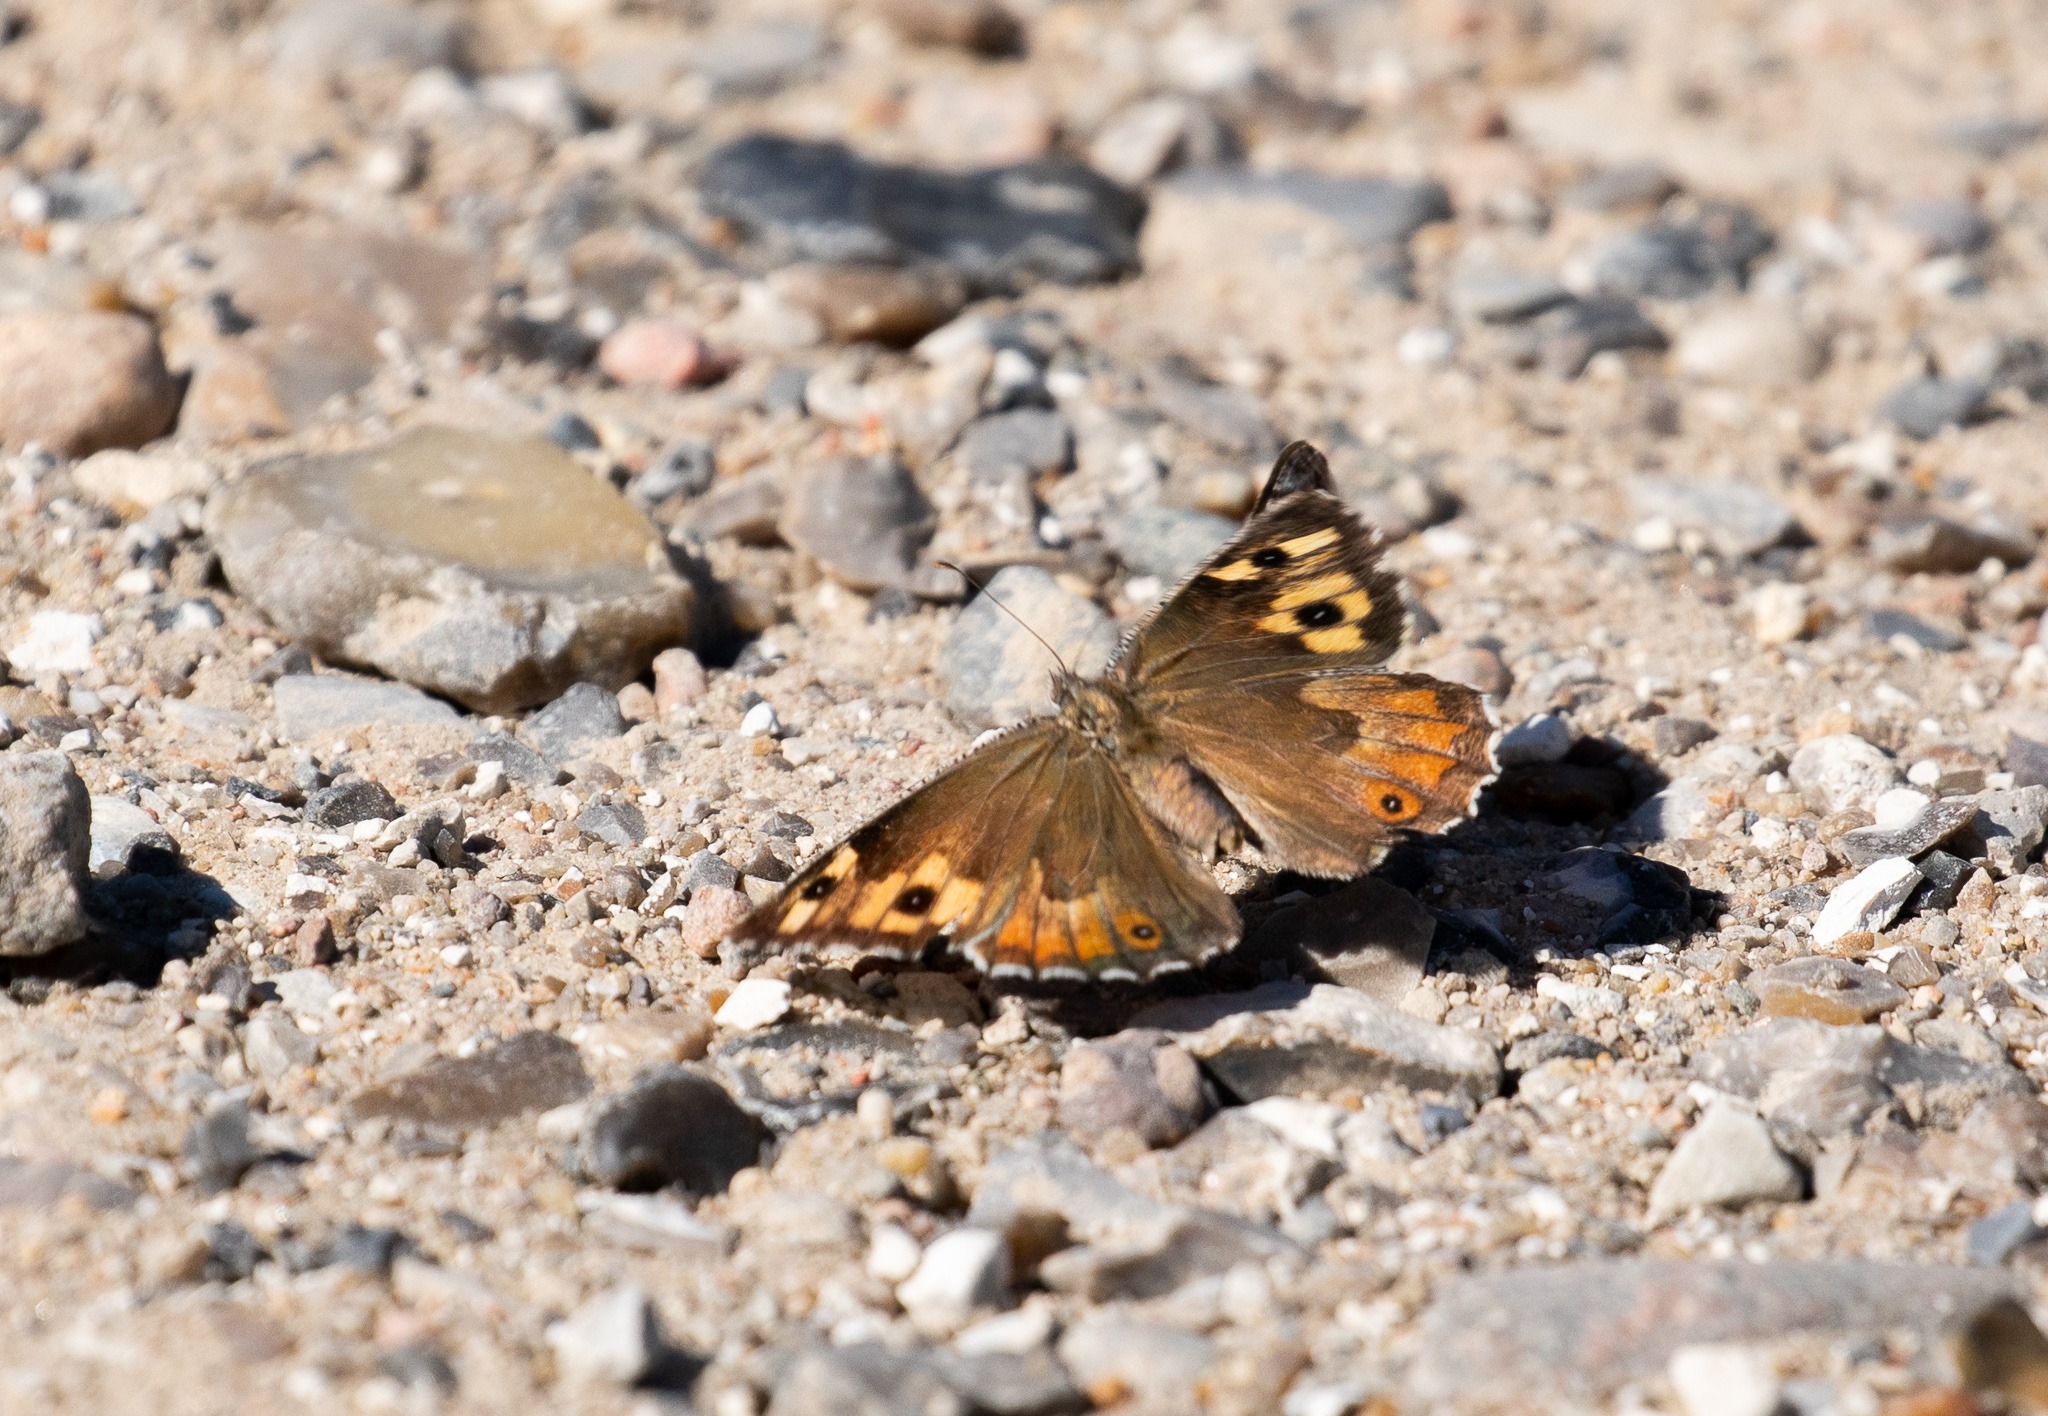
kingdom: Animalia
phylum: Arthropoda
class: Insecta
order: Lepidoptera
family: Nymphalidae
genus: Hipparchia
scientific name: Hipparchia semele
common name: Sandrandøje
